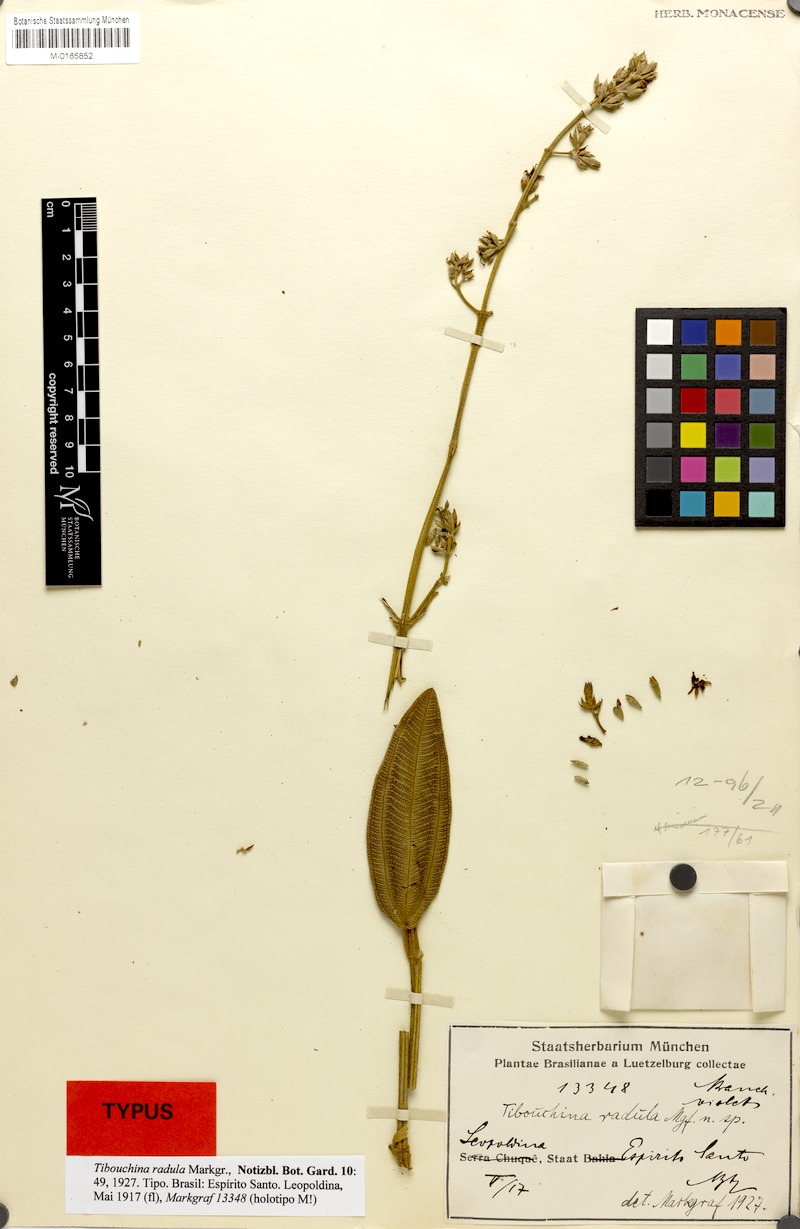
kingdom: Plantae
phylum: Tracheophyta
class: Magnoliopsida
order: Myrtales
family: Melastomataceae
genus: Pleroma
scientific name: Pleroma radula
